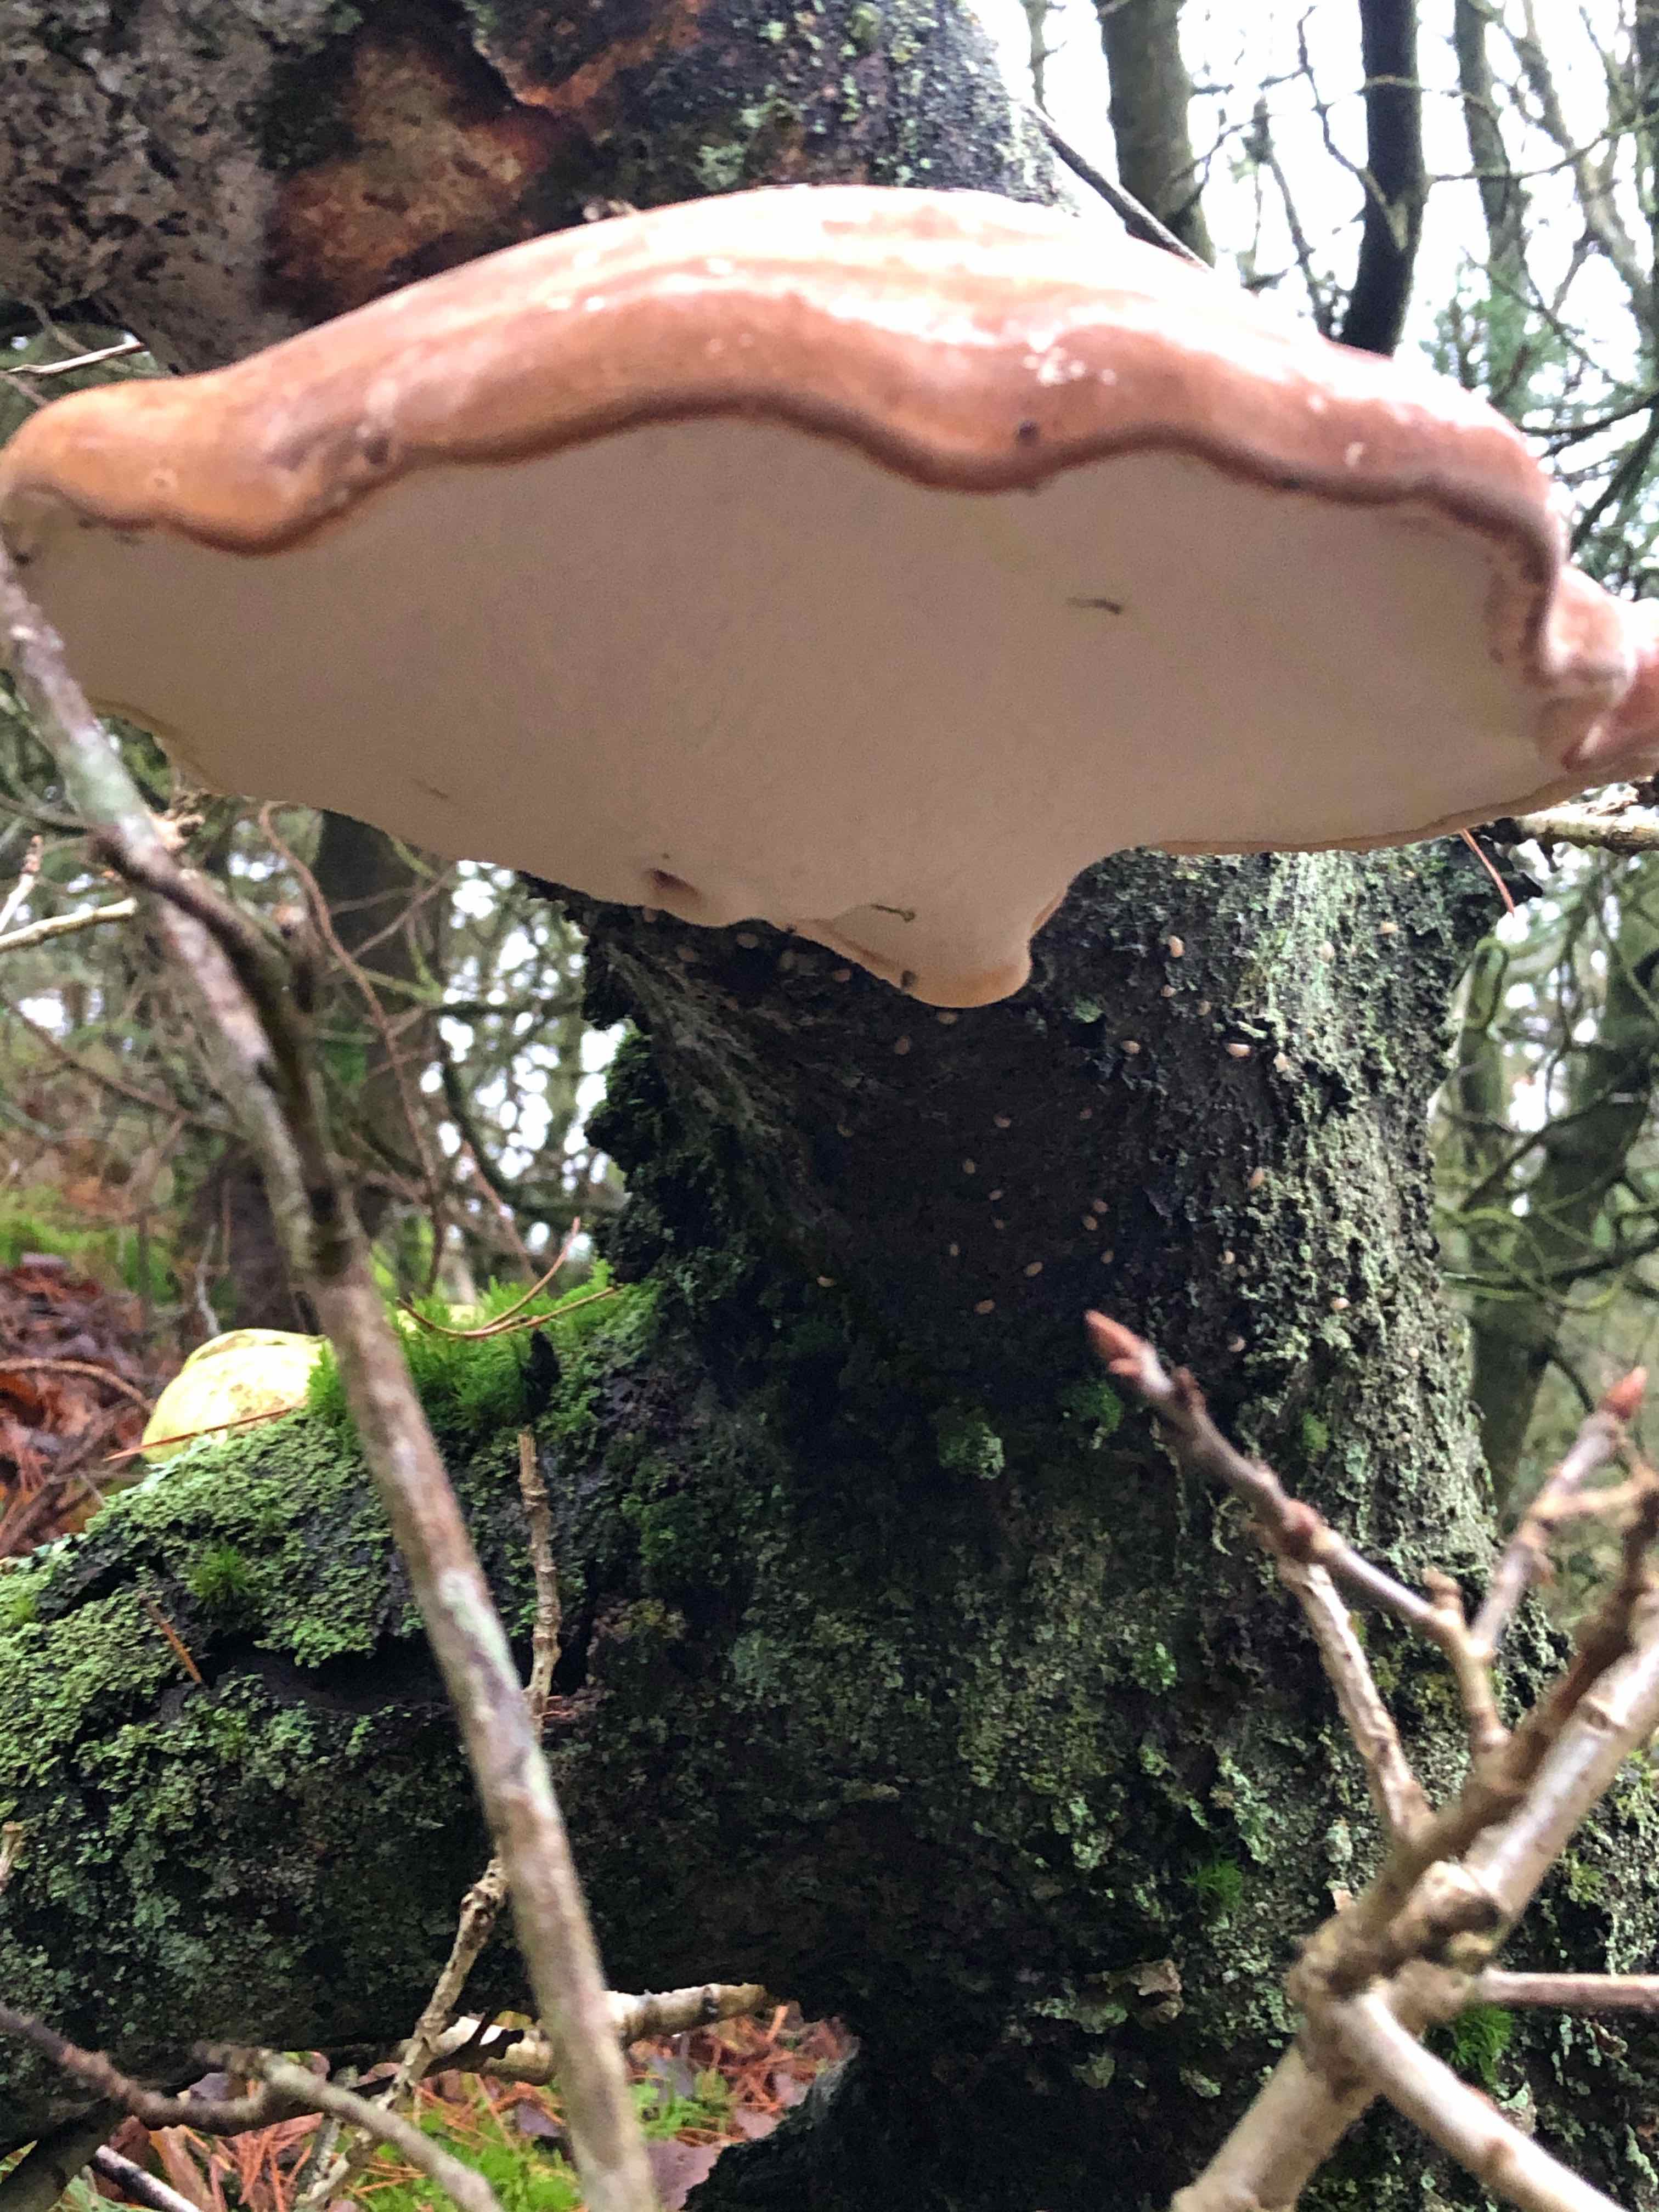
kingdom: Fungi
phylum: Basidiomycota
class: Agaricomycetes
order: Polyporales
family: Fomitopsidaceae
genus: Fomitopsis
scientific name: Fomitopsis betulina
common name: birkeporesvamp
